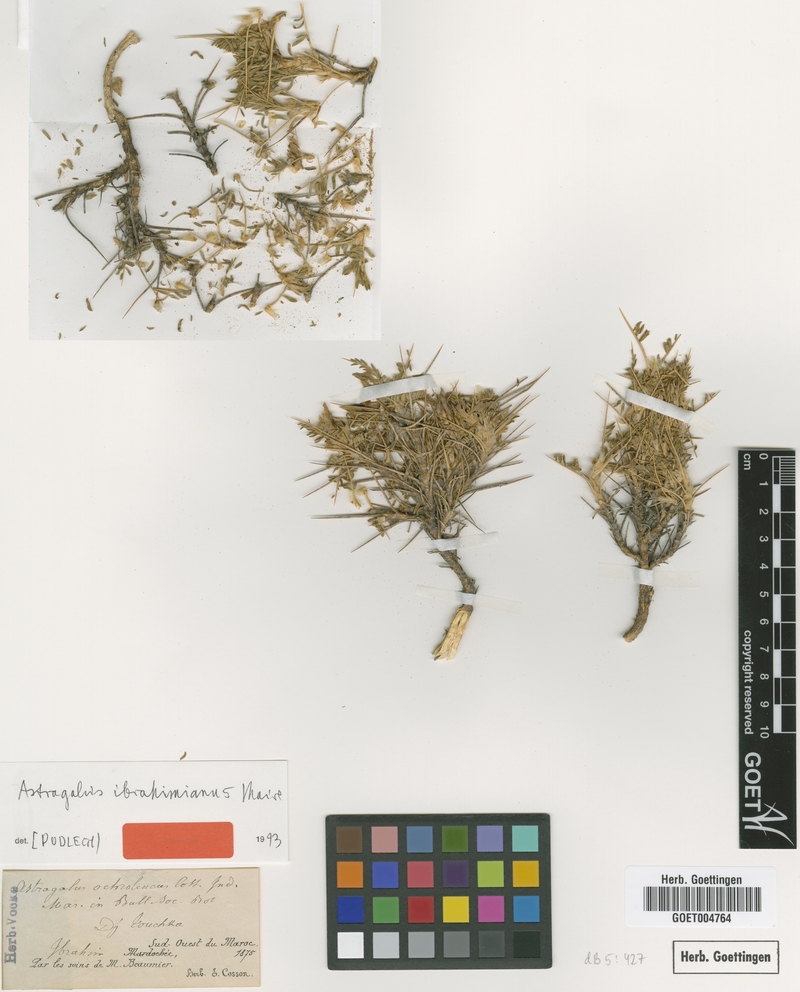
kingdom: Plantae
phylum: Tracheophyta
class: Magnoliopsida
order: Fabales
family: Fabaceae
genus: Astragalus
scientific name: Astragalus ibrahimianus
